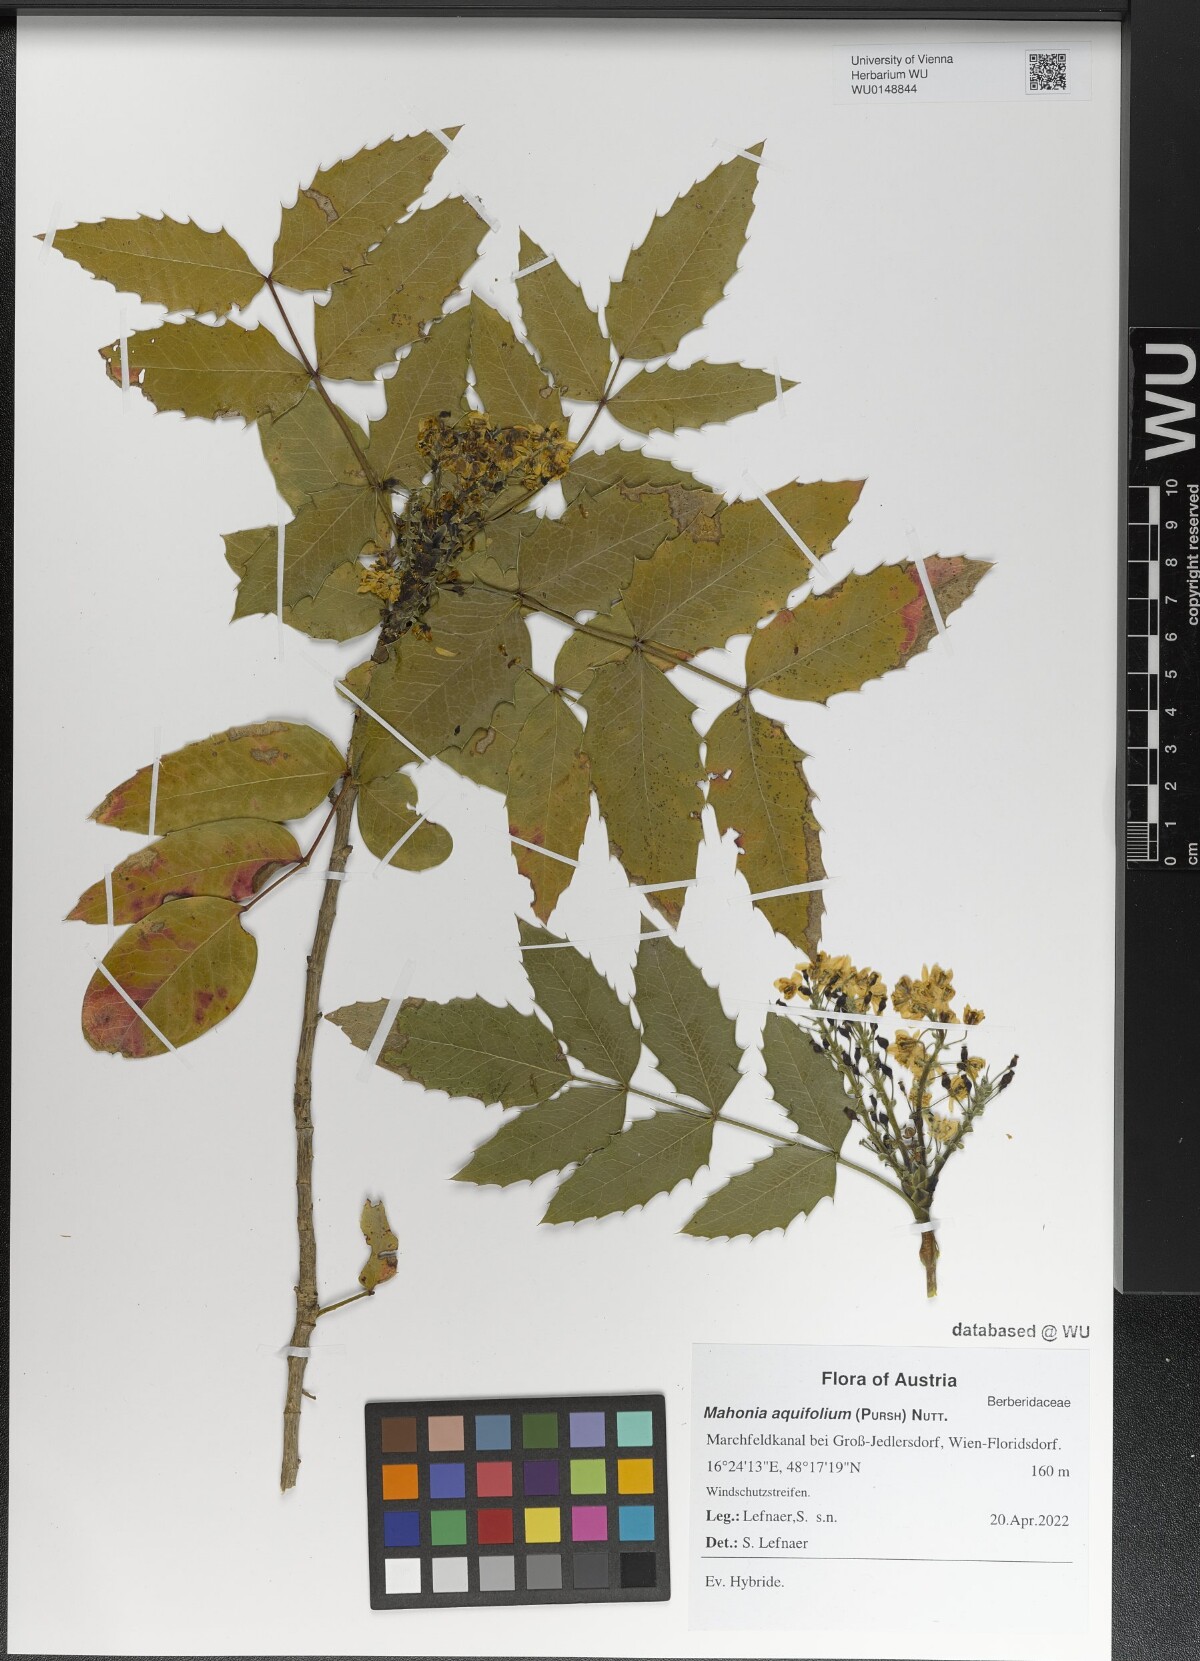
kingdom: Plantae
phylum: Tracheophyta
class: Magnoliopsida
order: Ranunculales
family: Berberidaceae
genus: Mahonia
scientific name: Mahonia aquifolium
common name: Oregon-grape
